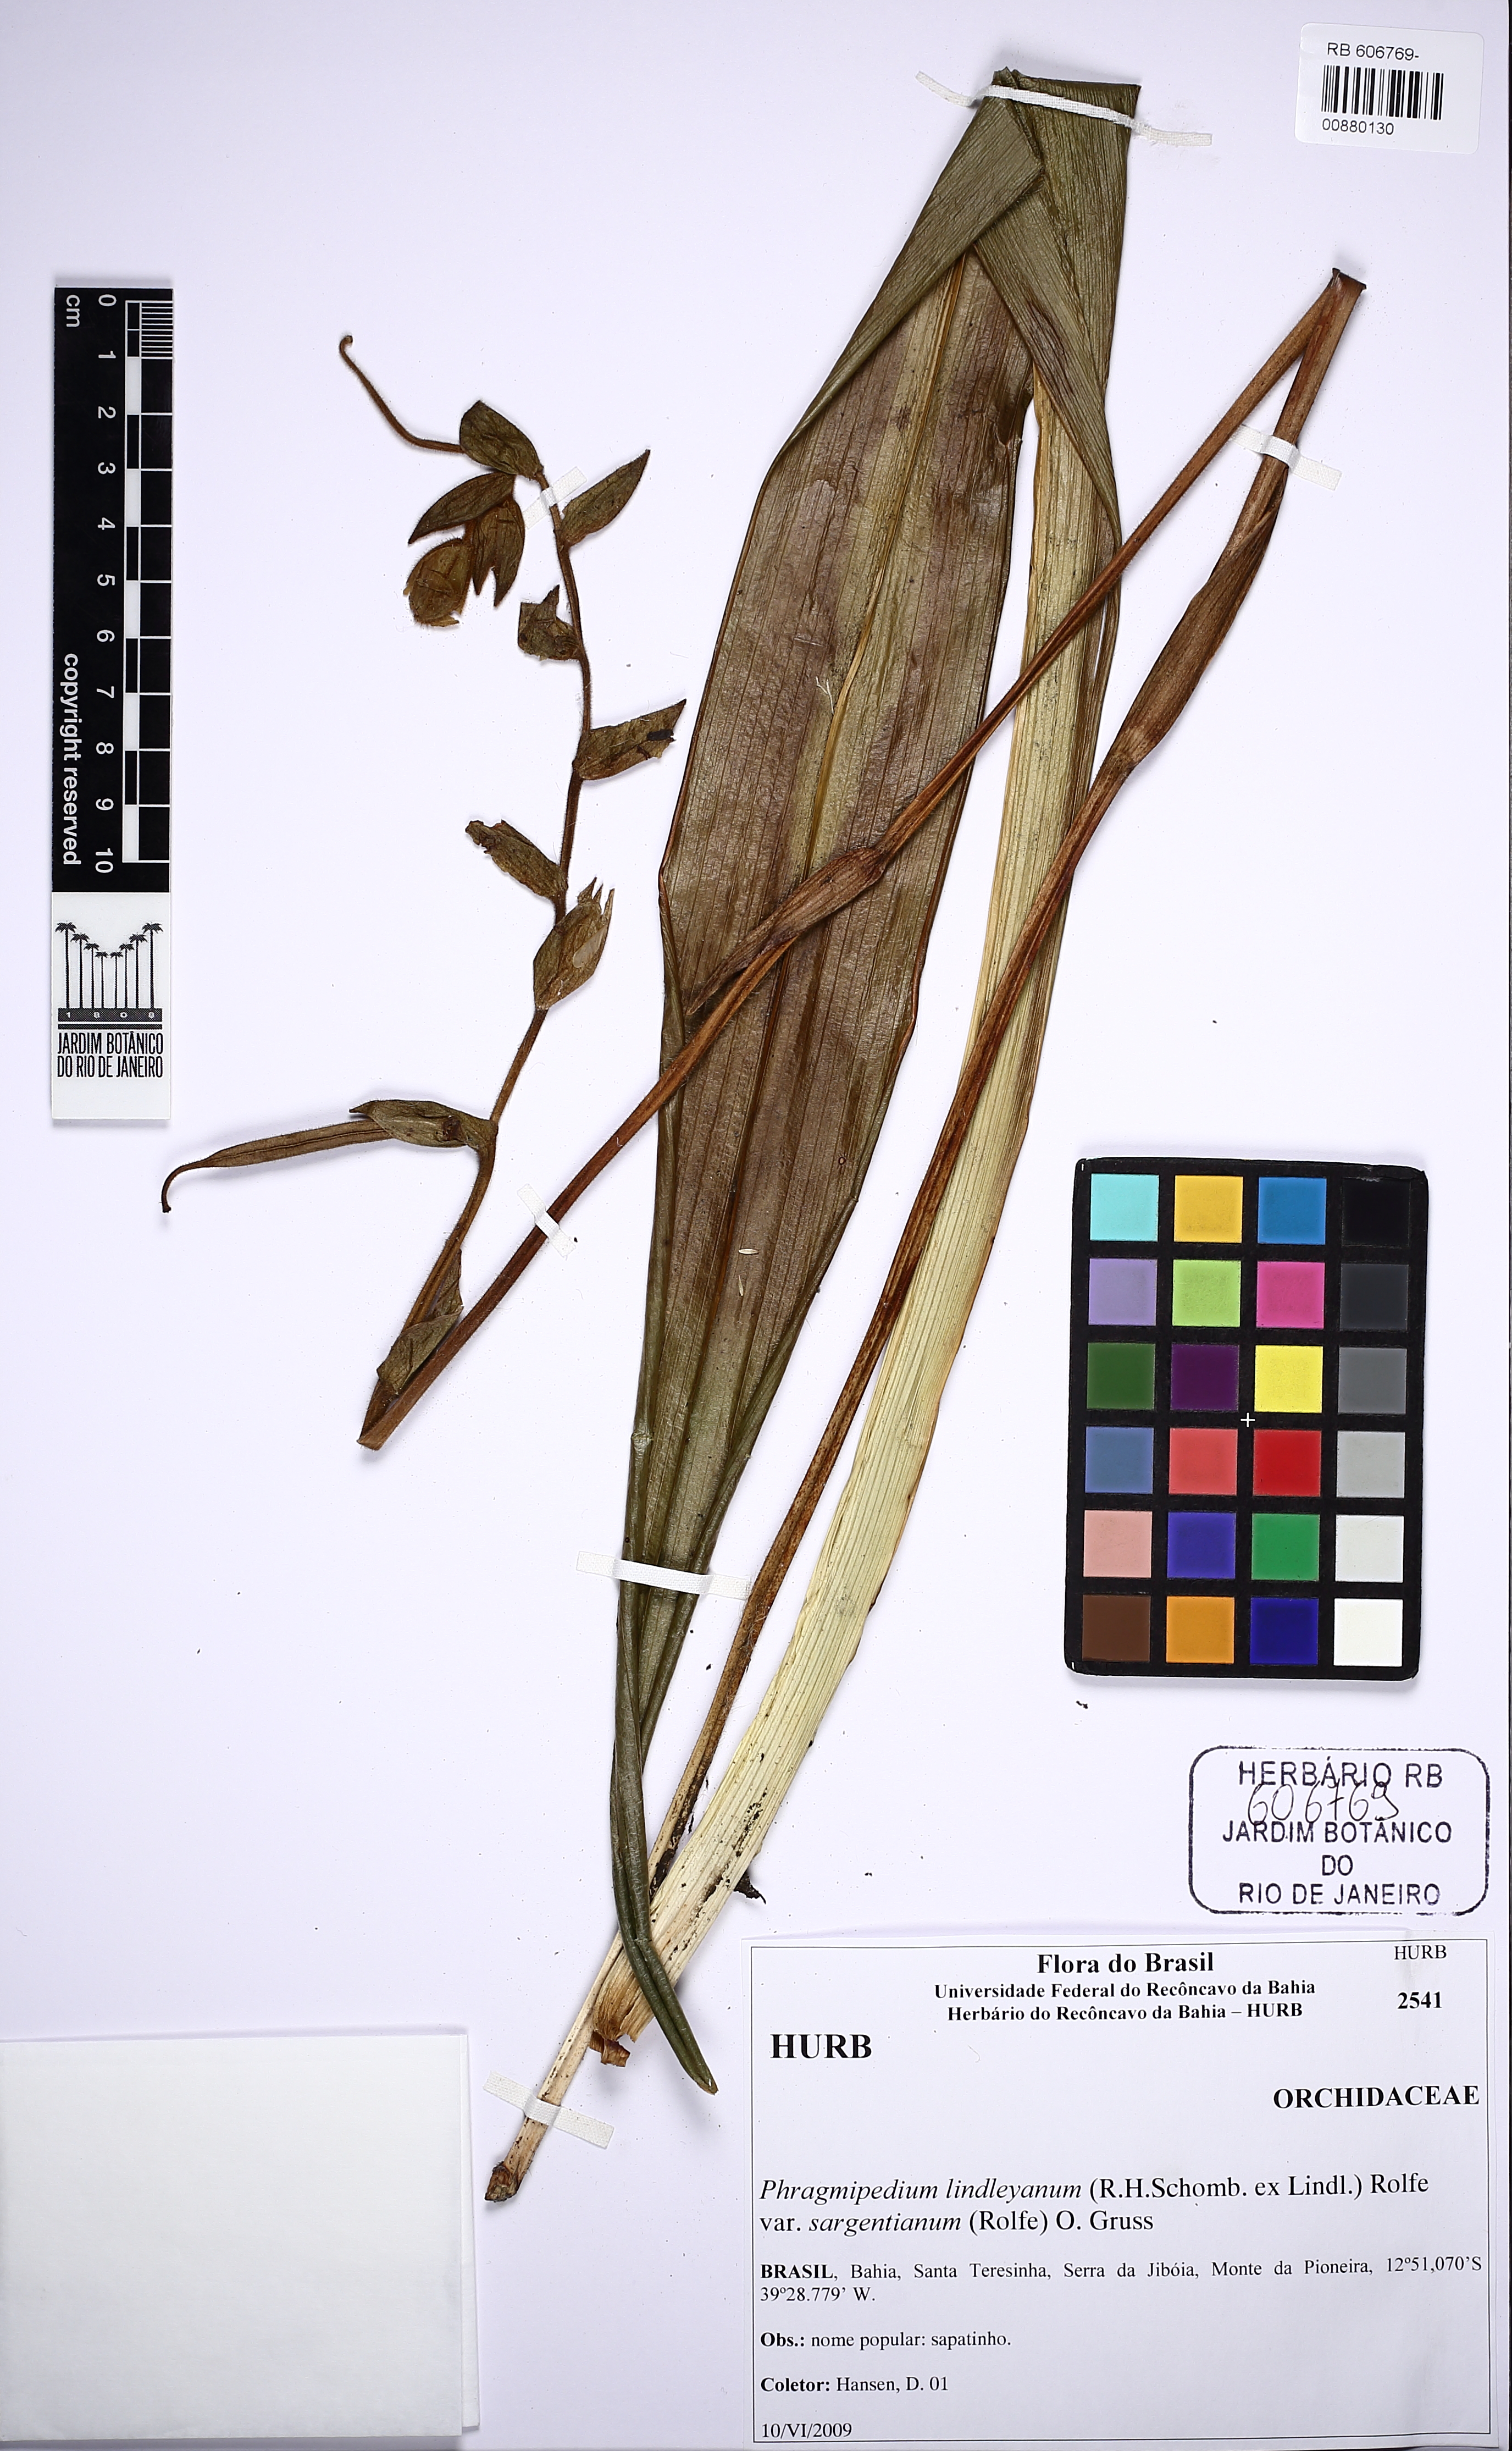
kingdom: Plantae
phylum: Tracheophyta
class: Liliopsida
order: Asparagales
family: Orchidaceae
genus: Phragmipedium
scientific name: Phragmipedium sargentianum
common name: Sargent's phragmipedium
